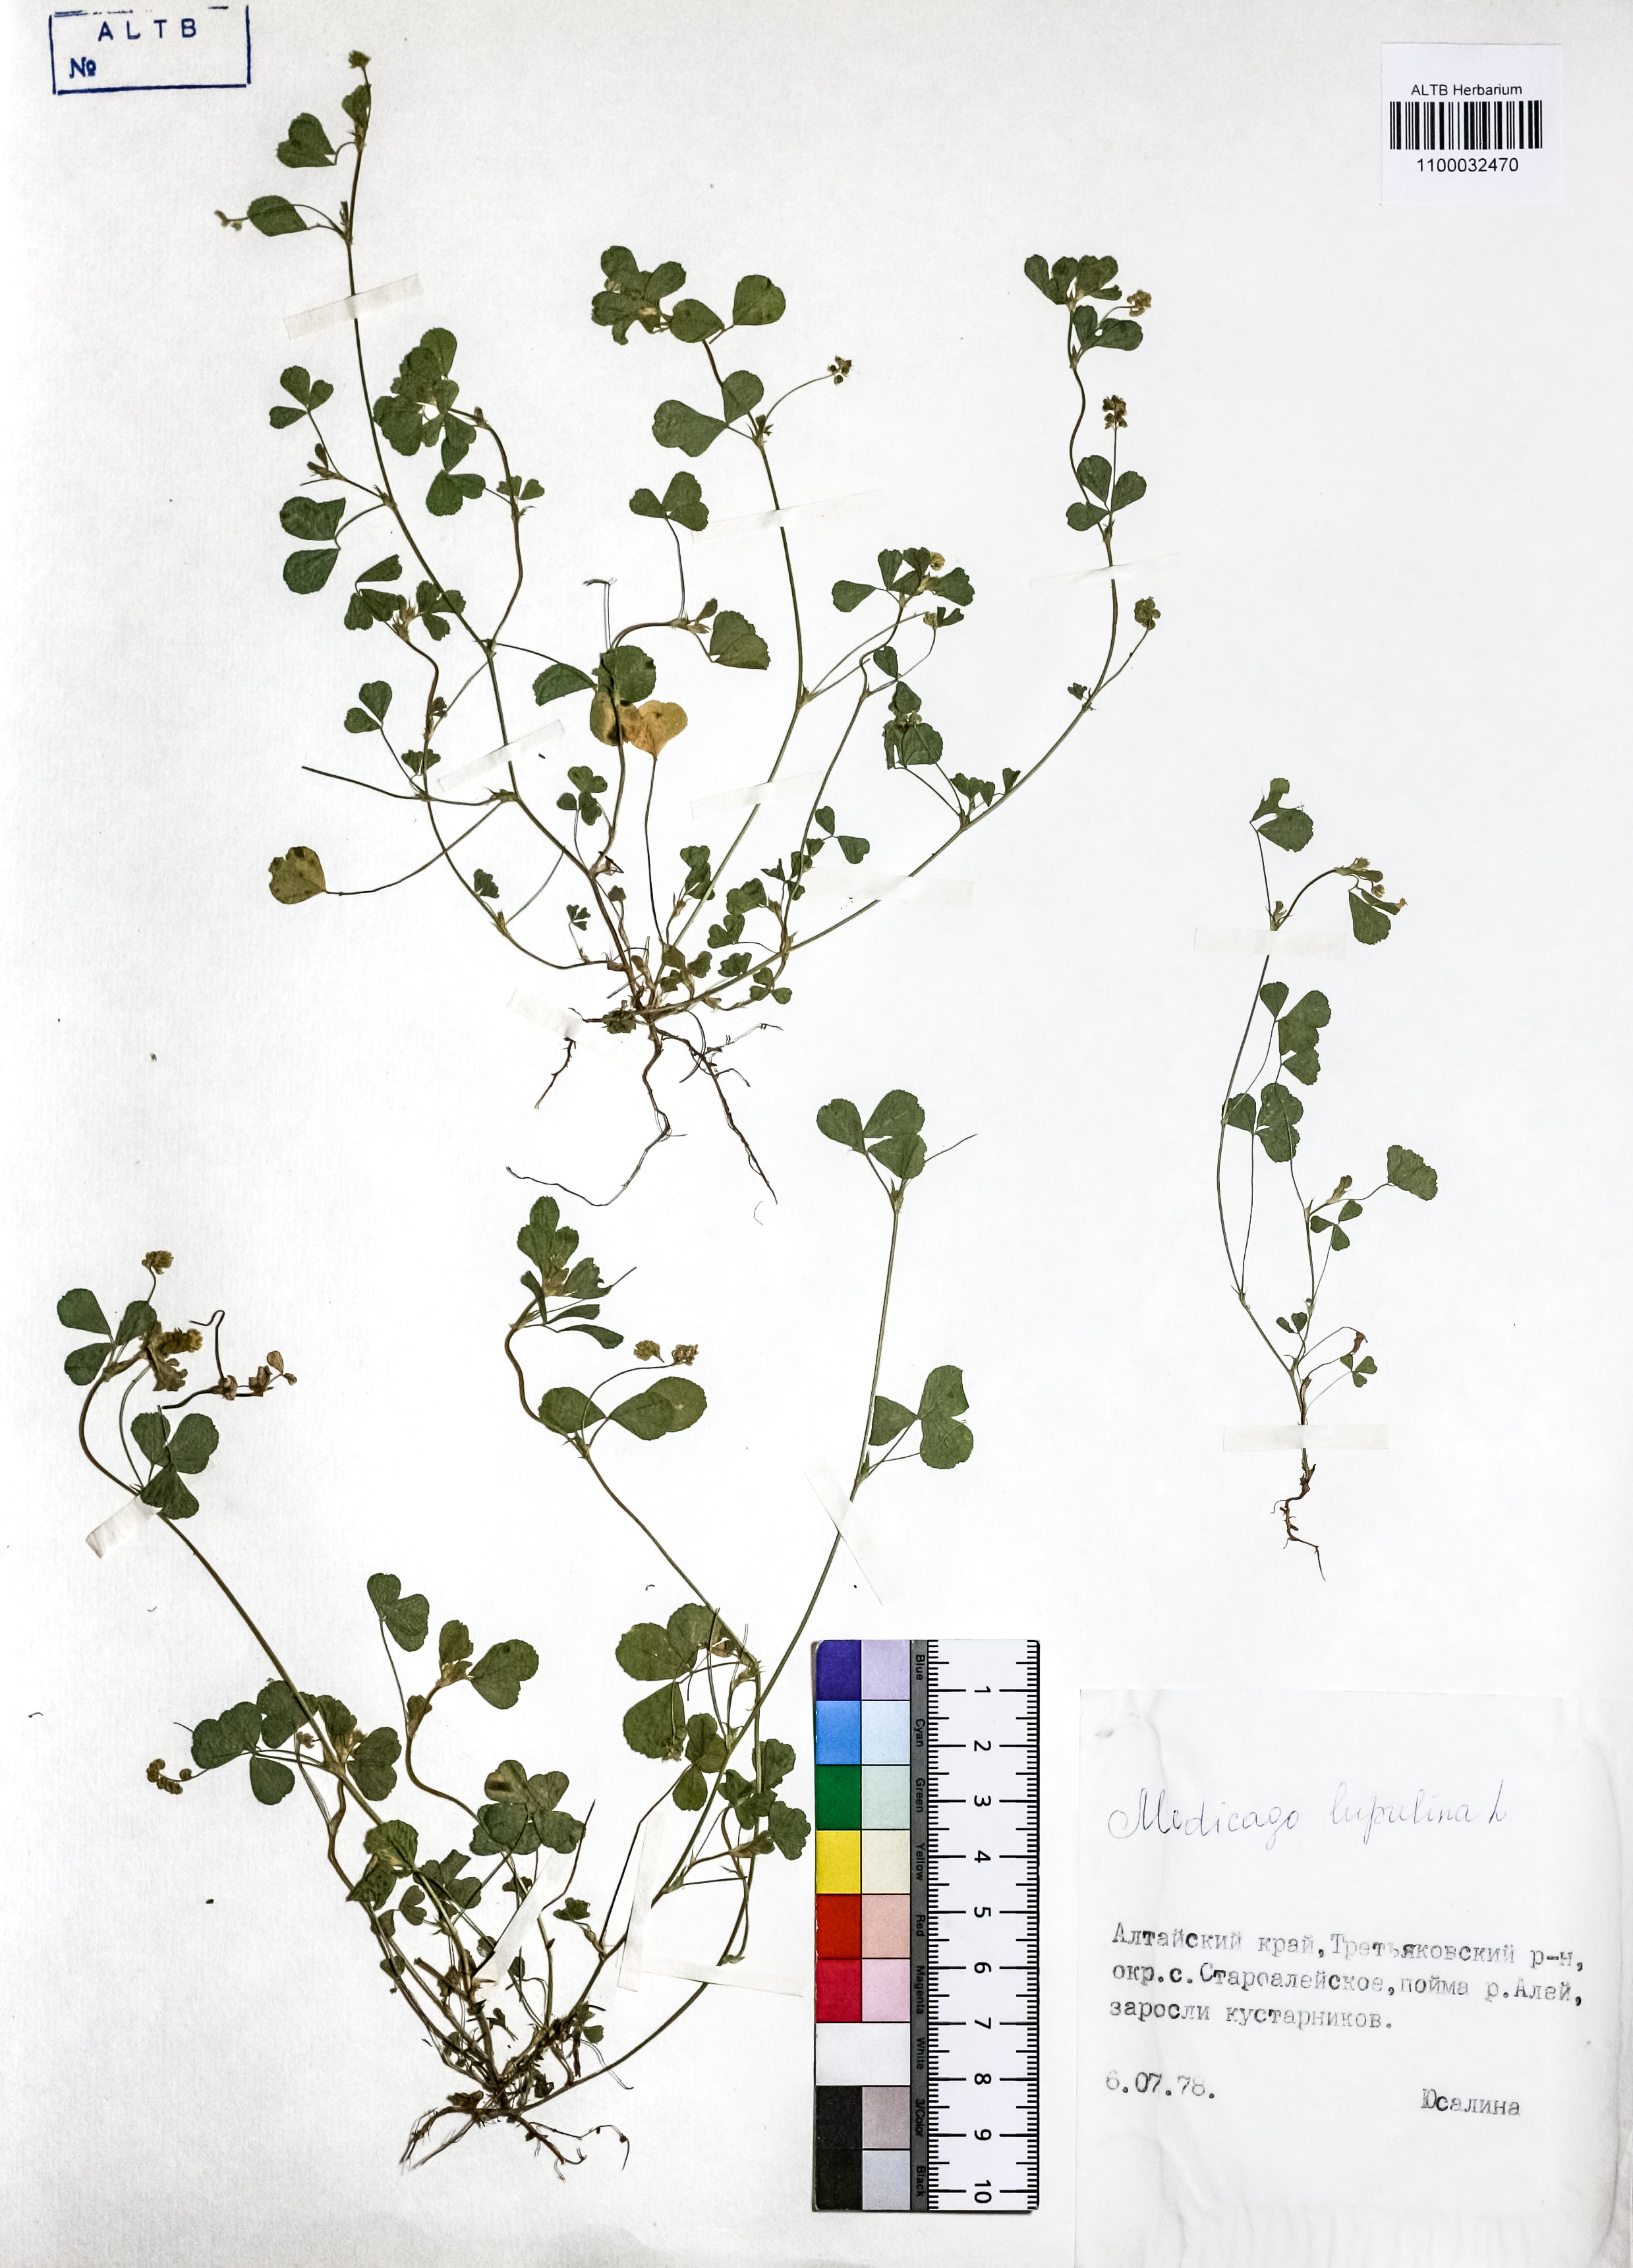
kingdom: Plantae
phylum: Tracheophyta
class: Magnoliopsida
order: Fabales
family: Fabaceae
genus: Medicago
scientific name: Medicago lupulina
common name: Black medick
